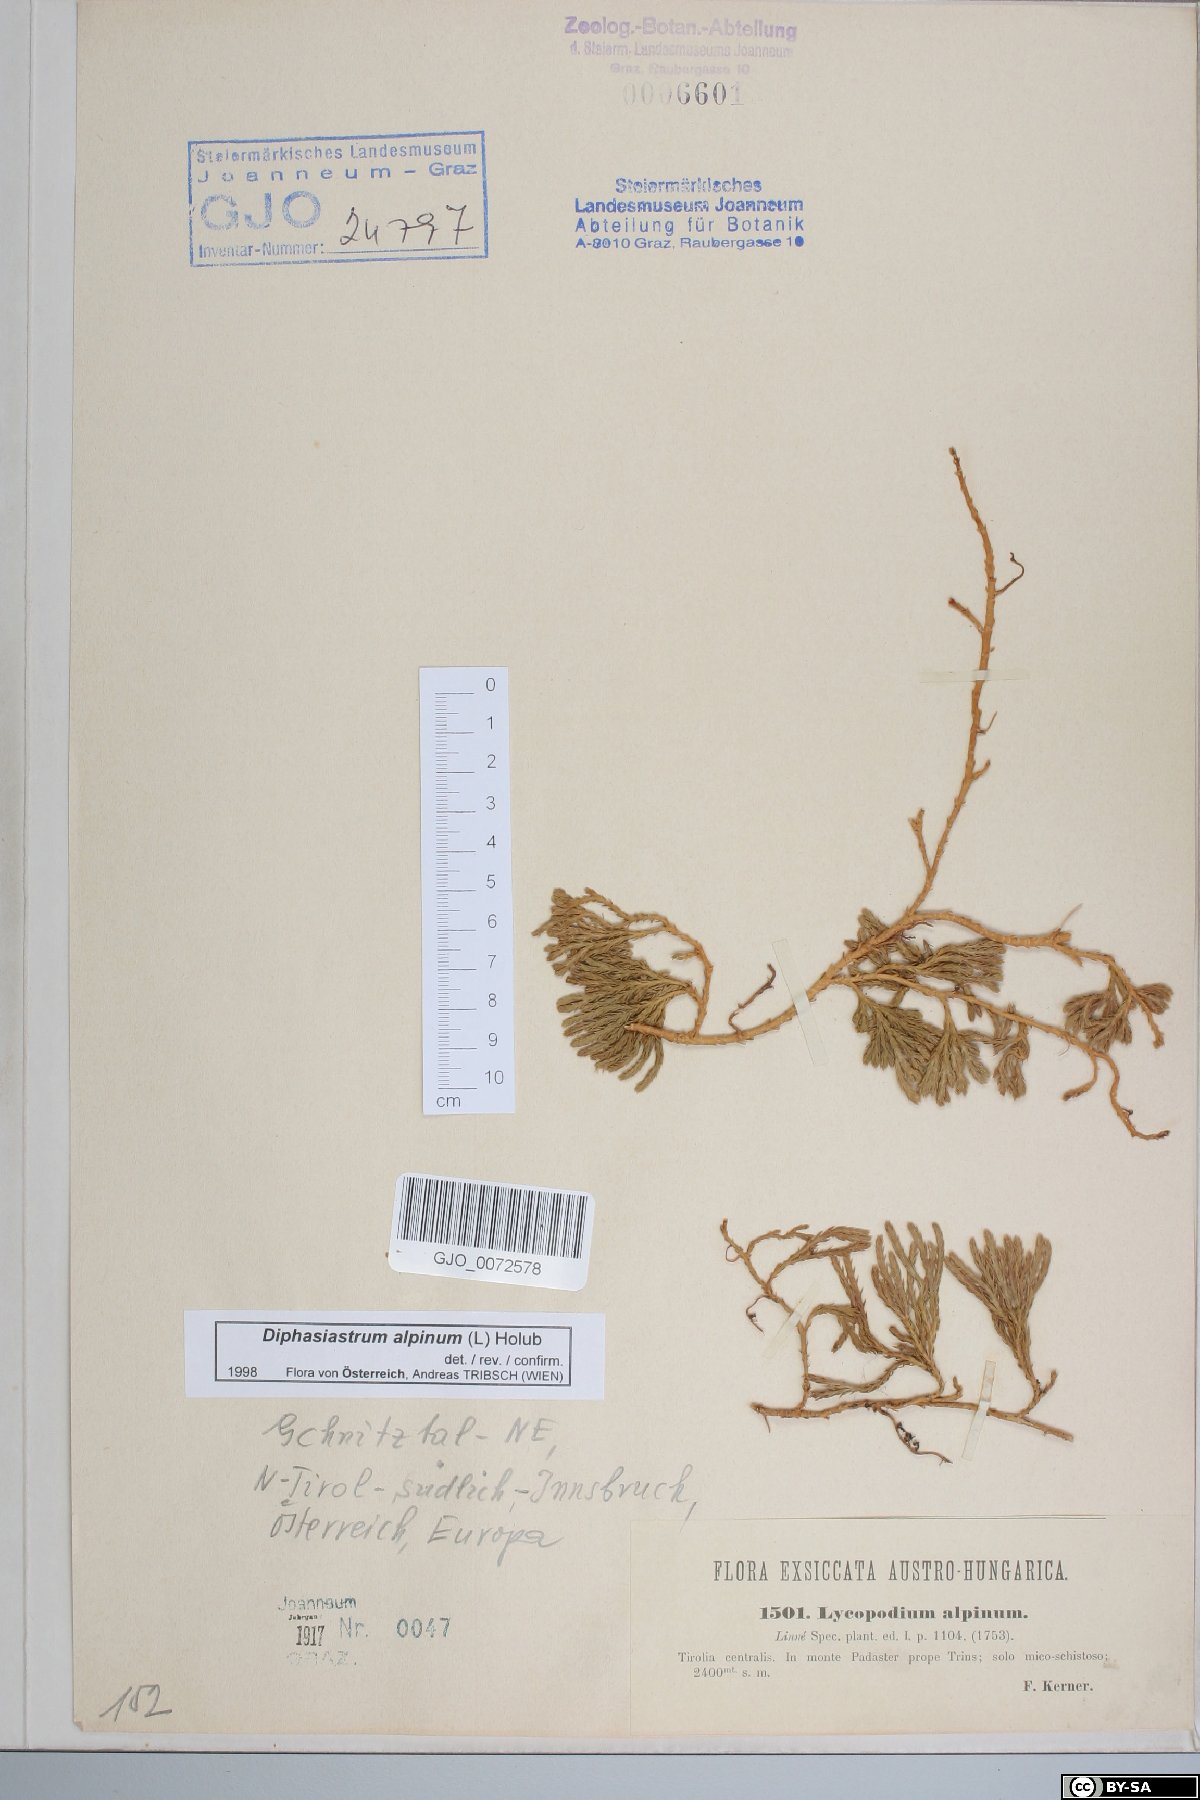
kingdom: Plantae
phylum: Tracheophyta
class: Lycopodiopsida
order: Lycopodiales
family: Lycopodiaceae
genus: Diphasiastrum
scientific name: Diphasiastrum alpinum
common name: Alpine clubmoss
